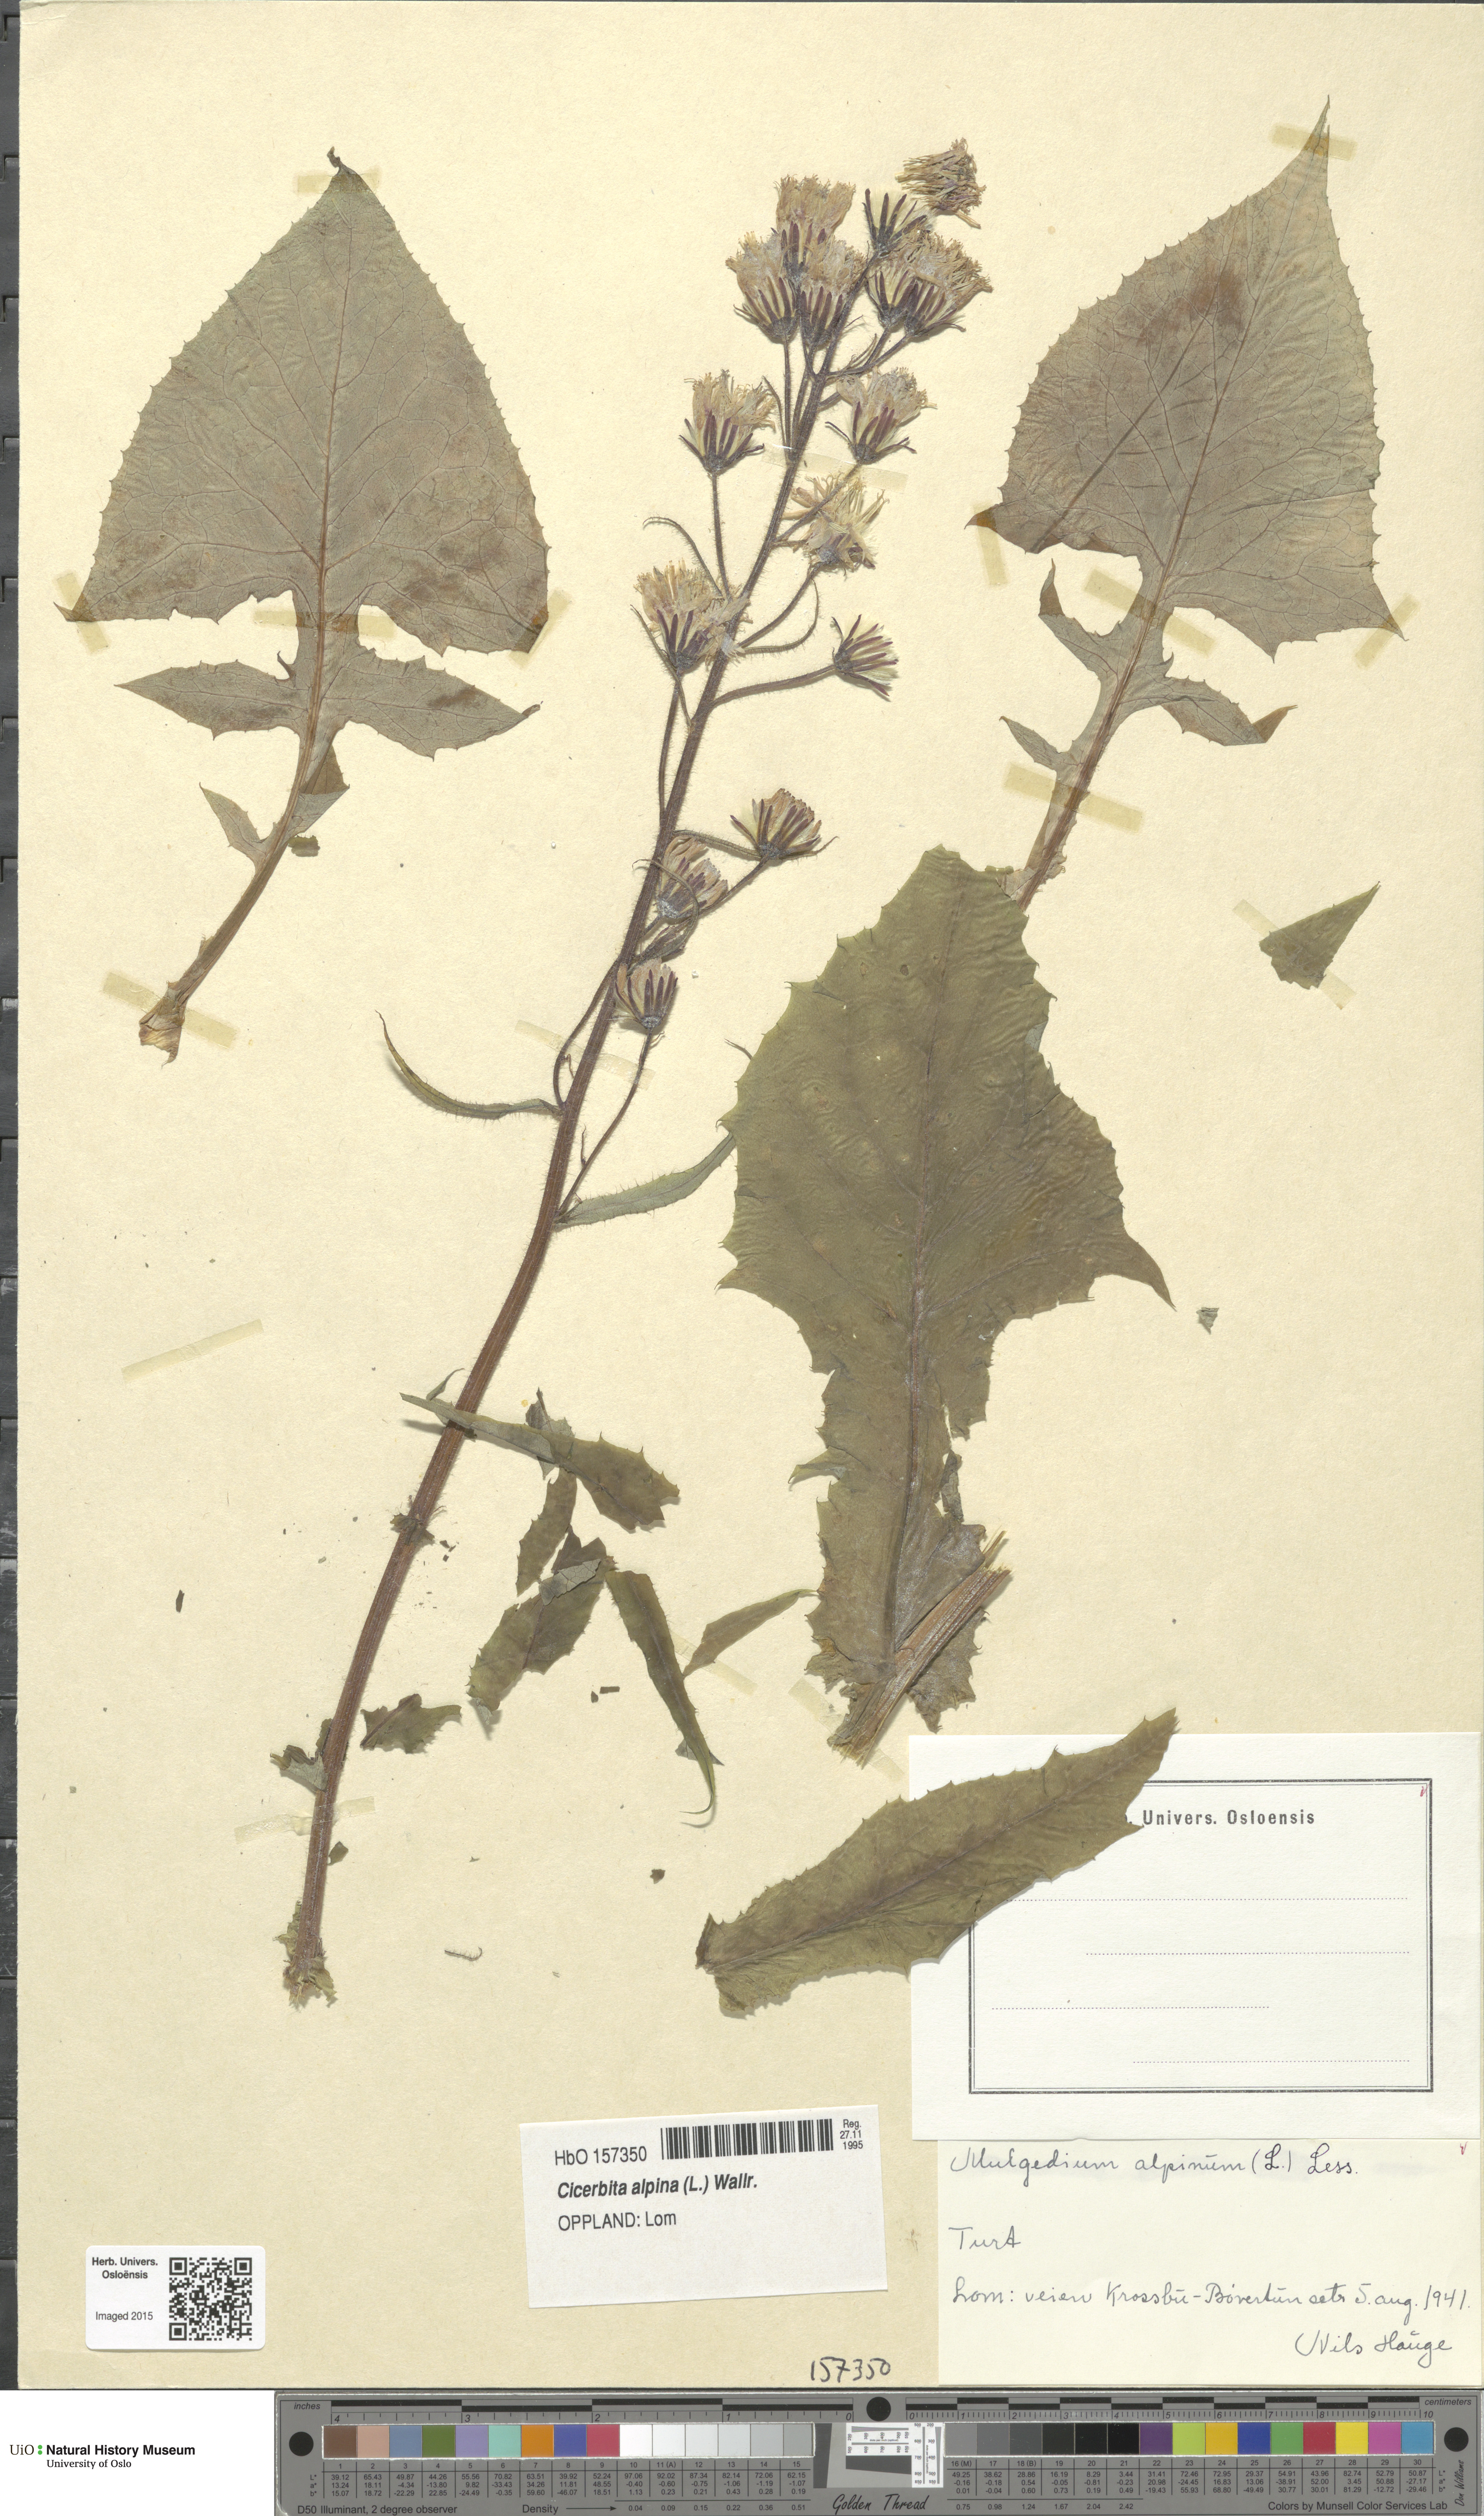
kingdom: Plantae
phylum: Tracheophyta
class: Magnoliopsida
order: Asterales
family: Asteraceae
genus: Cicerbita
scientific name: Cicerbita alpina
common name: Alpine blue-sow-thistle
